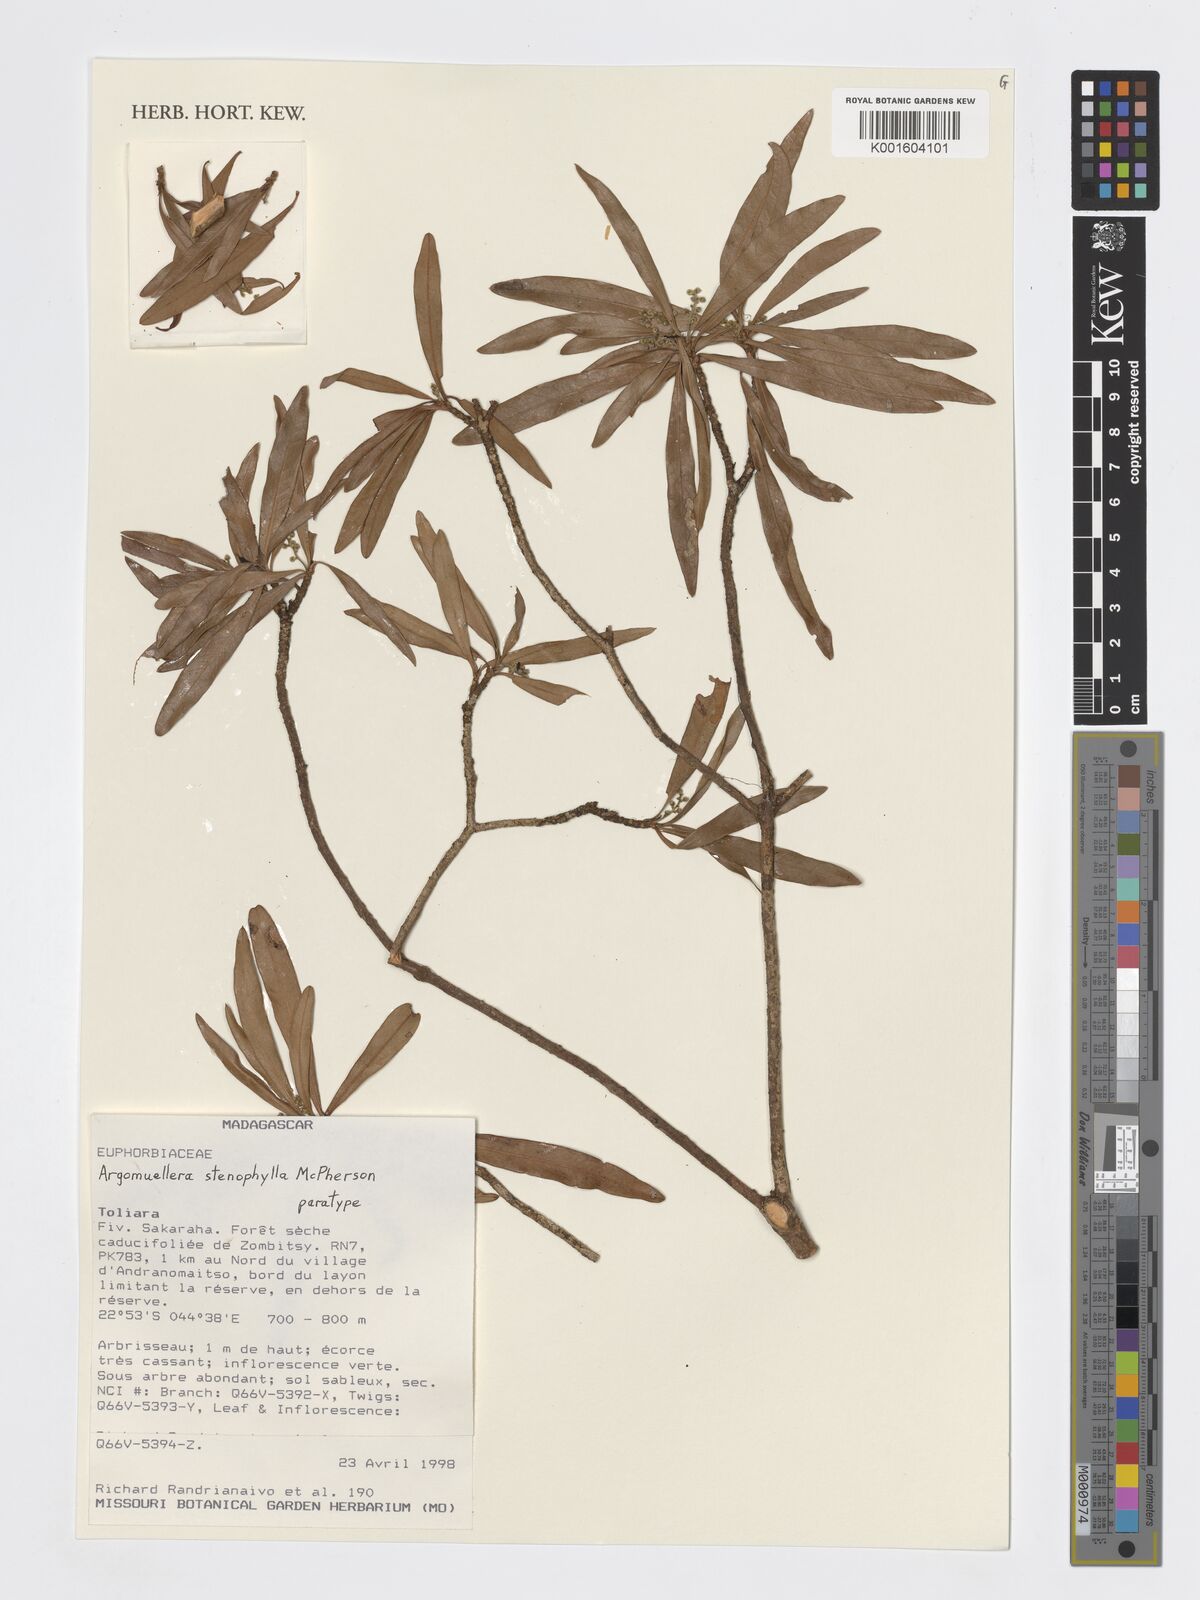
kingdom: Plantae
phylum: Tracheophyta
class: Magnoliopsida
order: Malpighiales
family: Euphorbiaceae
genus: Argomuellera
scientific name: Argomuellera stenophylla
